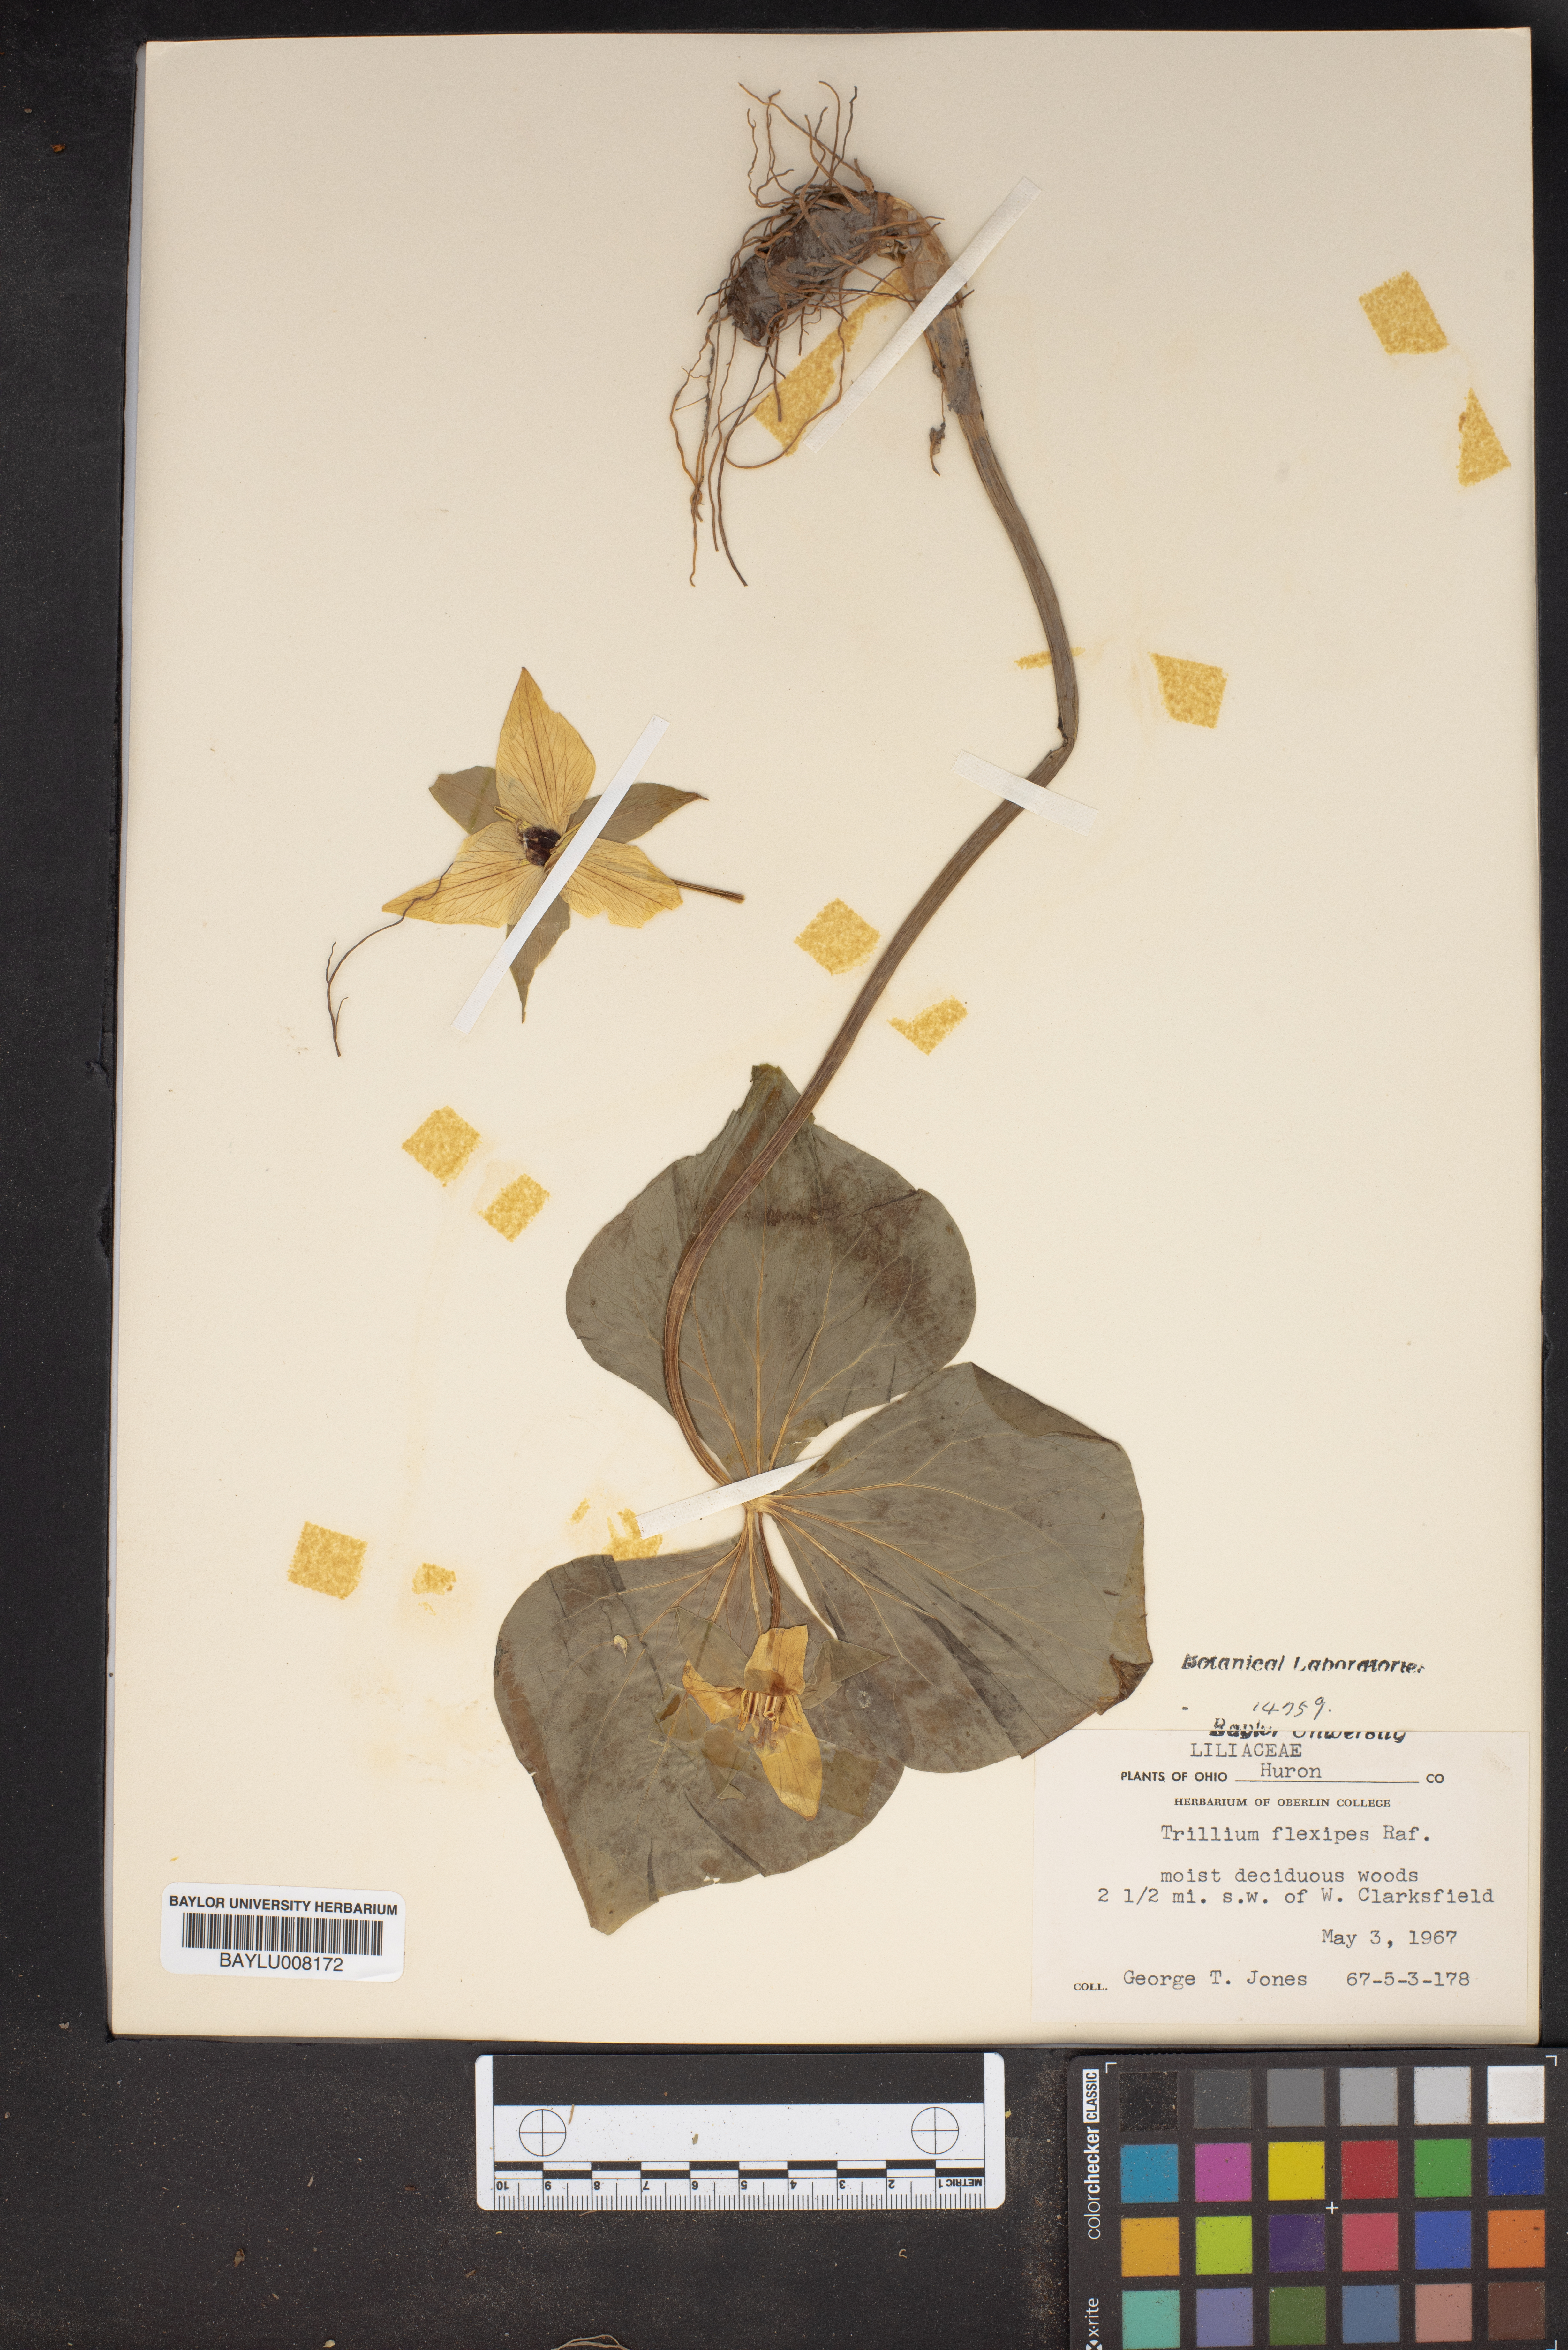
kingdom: Plantae
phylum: Tracheophyta
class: Liliopsida
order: Liliales
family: Melanthiaceae
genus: Trillium
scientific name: Trillium flexipes
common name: Drooping trillium
